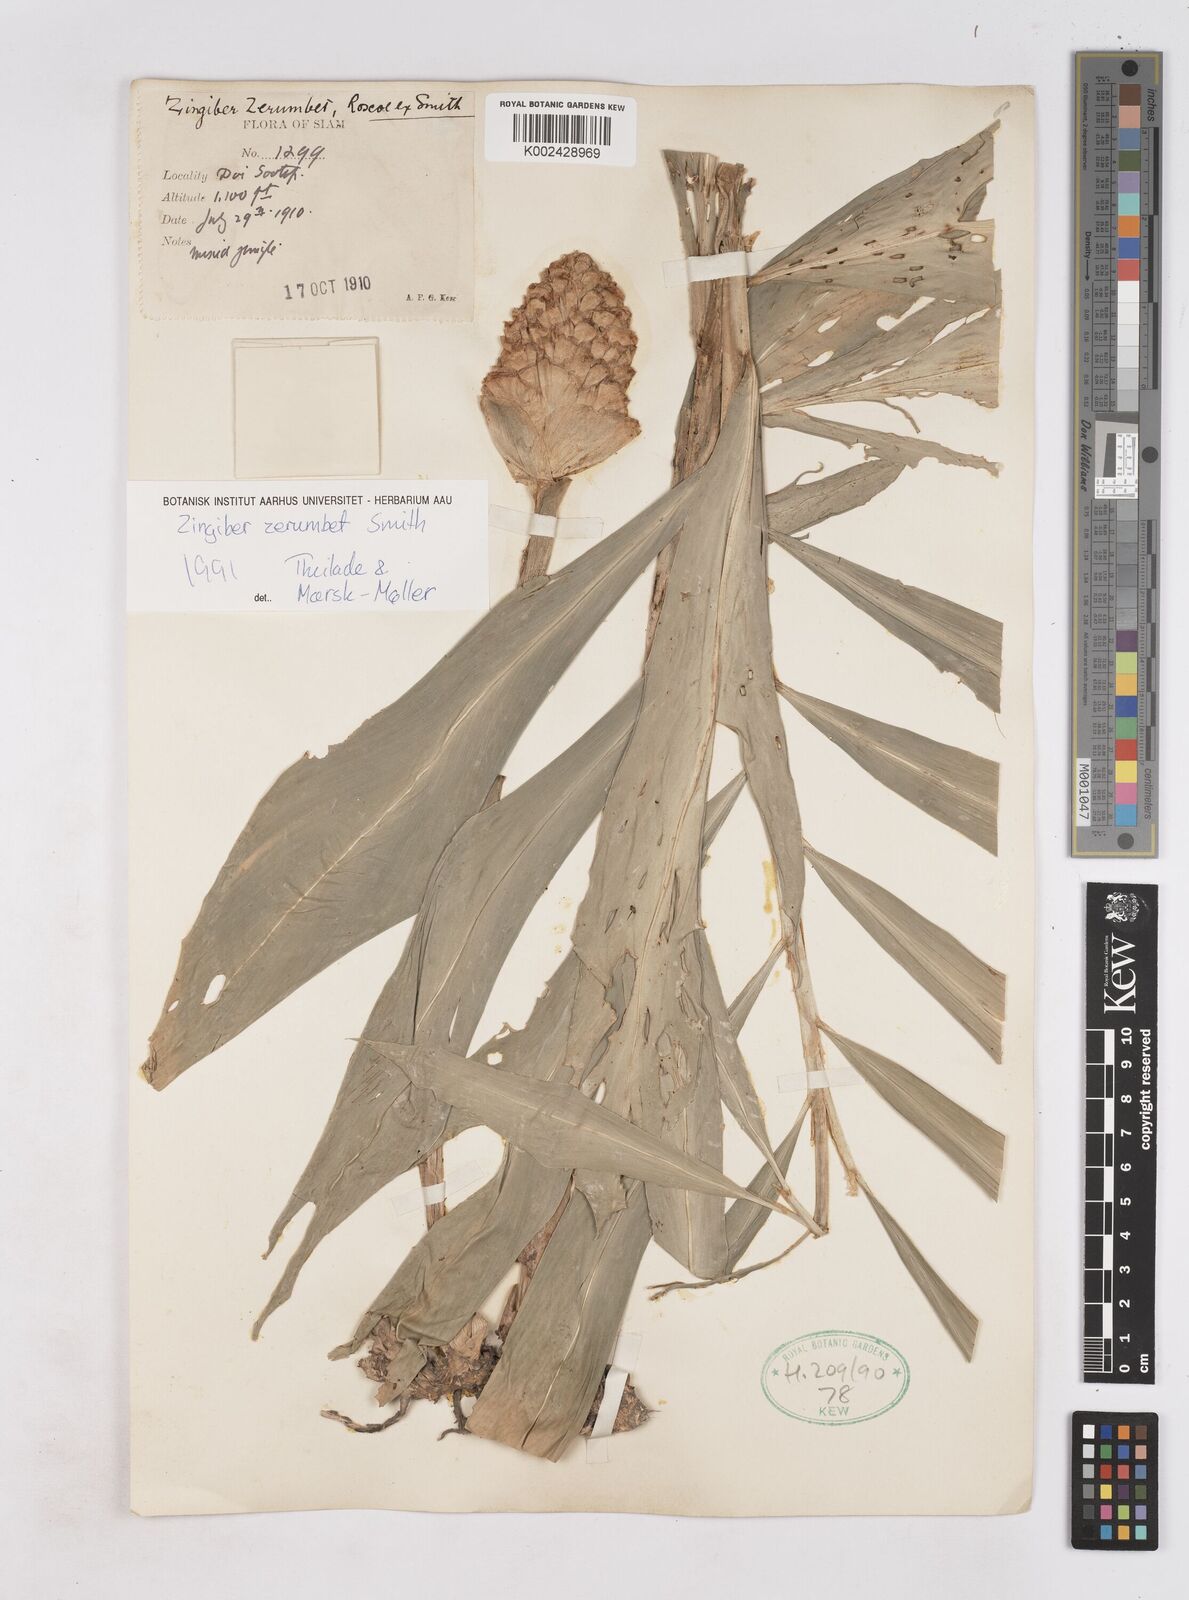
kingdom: Plantae
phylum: Tracheophyta
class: Liliopsida
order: Zingiberales
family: Zingiberaceae
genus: Zingiber
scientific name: Zingiber zerumbet
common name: Bitter ginger
